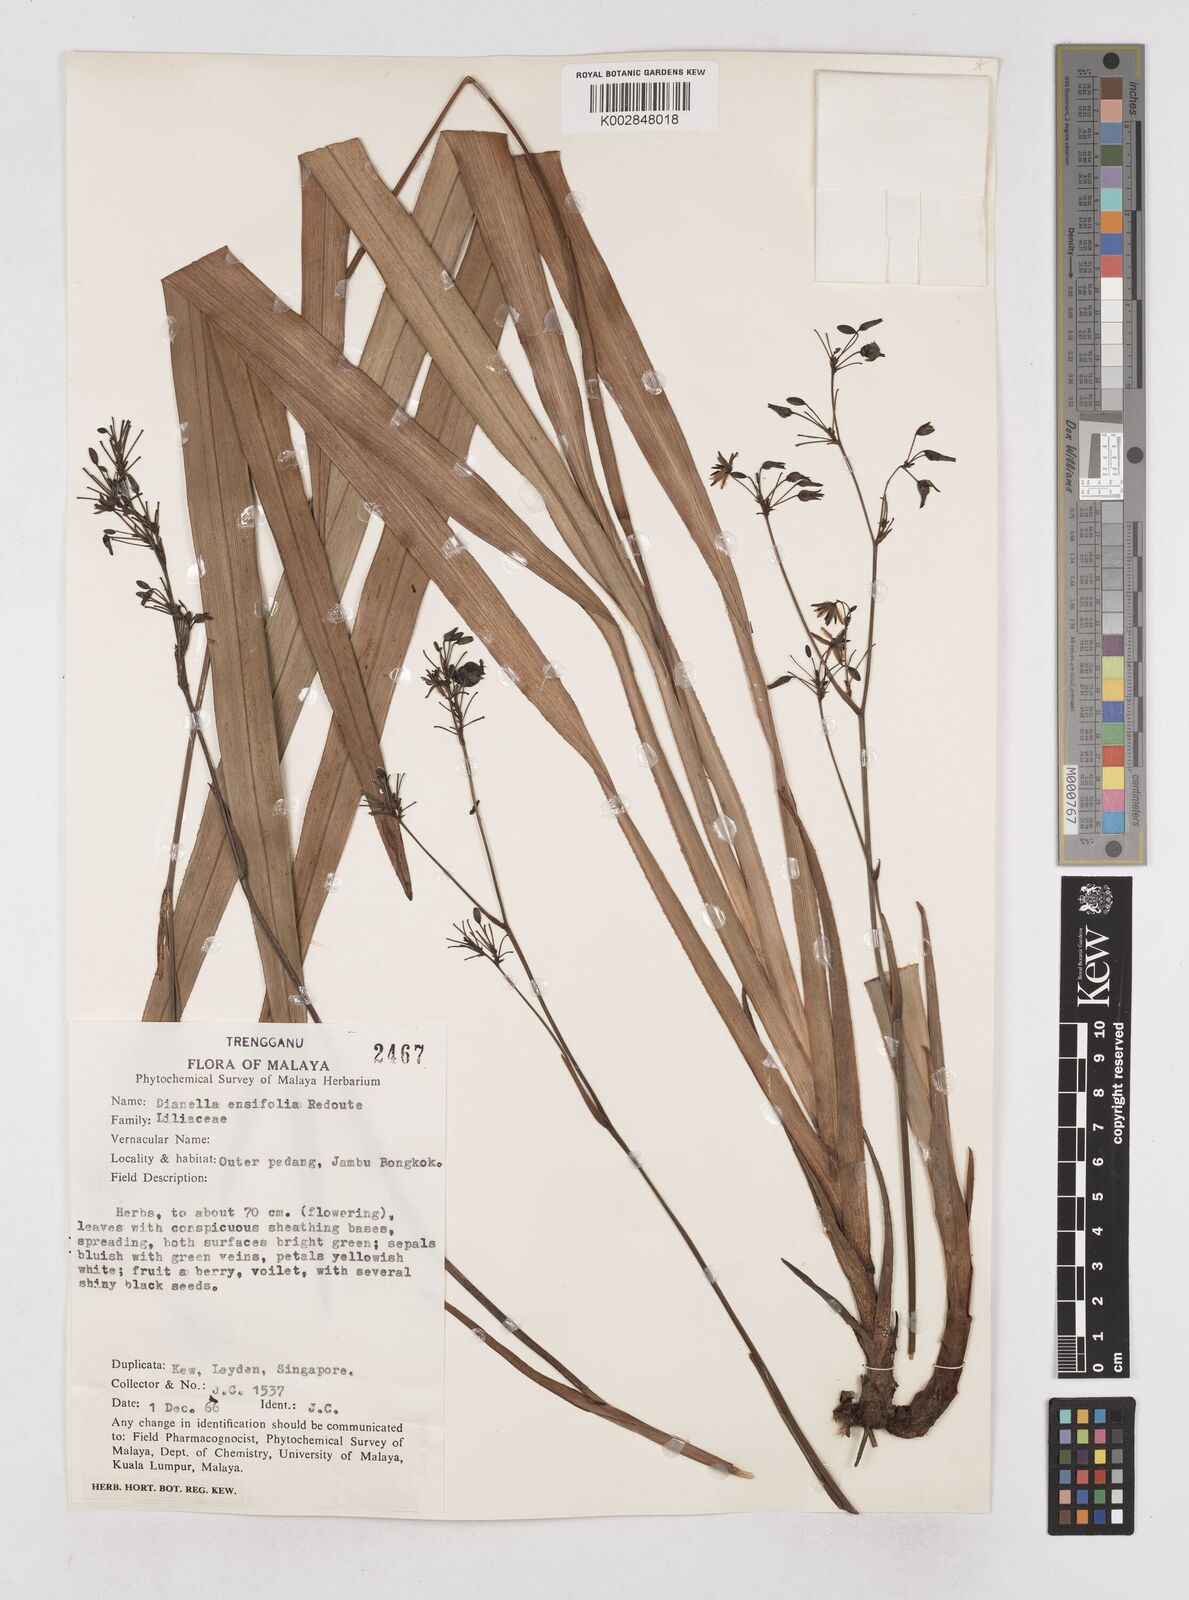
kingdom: Plantae
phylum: Tracheophyta
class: Liliopsida
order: Asparagales
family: Asphodelaceae
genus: Dianella
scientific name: Dianella ensifolia
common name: New zealand lilyplant
